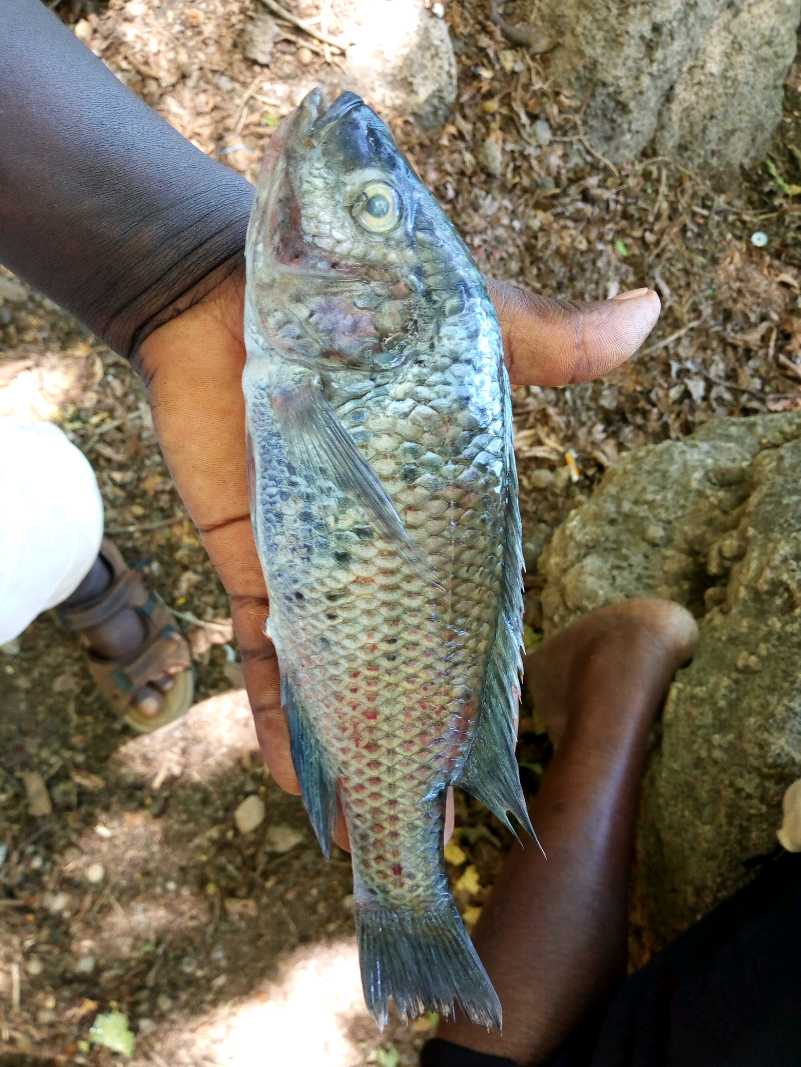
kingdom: Animalia
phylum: Chordata
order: Perciformes
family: Cichlidae
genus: Oreochromis
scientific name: Oreochromis hunteri
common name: Lake chala tilapia
